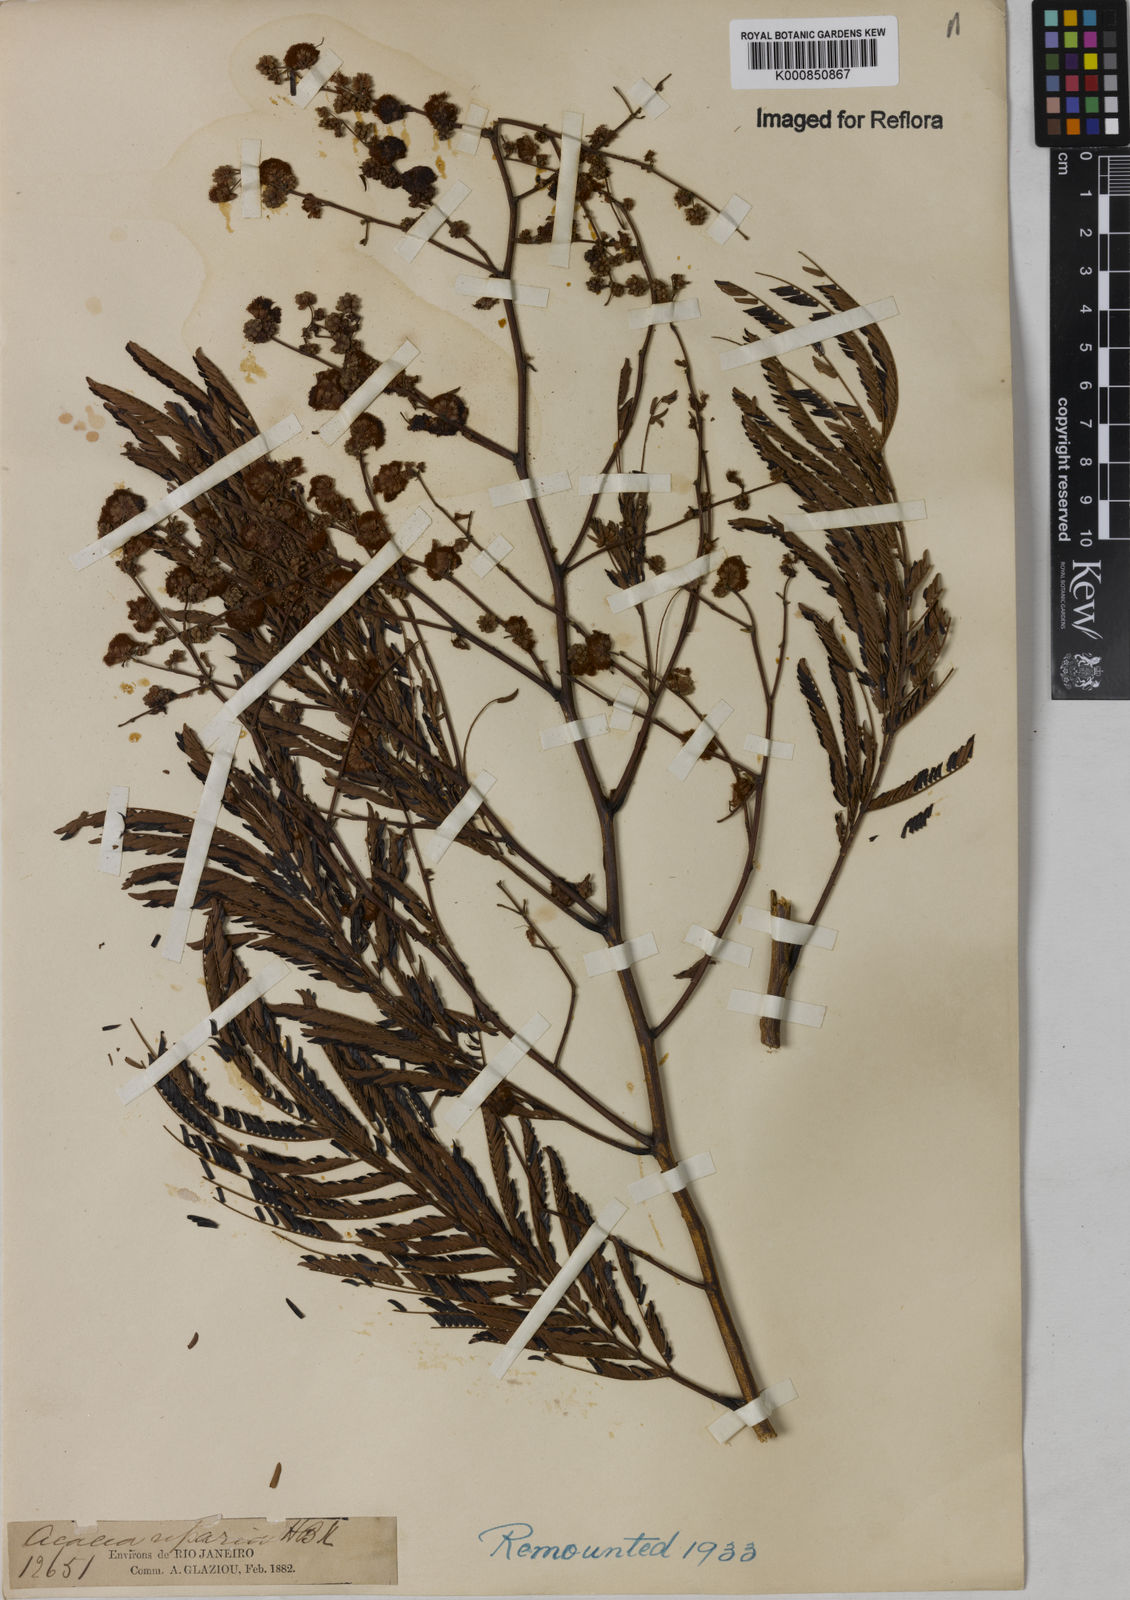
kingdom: Plantae
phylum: Tracheophyta
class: Magnoliopsida
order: Fabales
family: Fabaceae
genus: Senegalia
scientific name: Senegalia polyphylla
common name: White-tamarind
